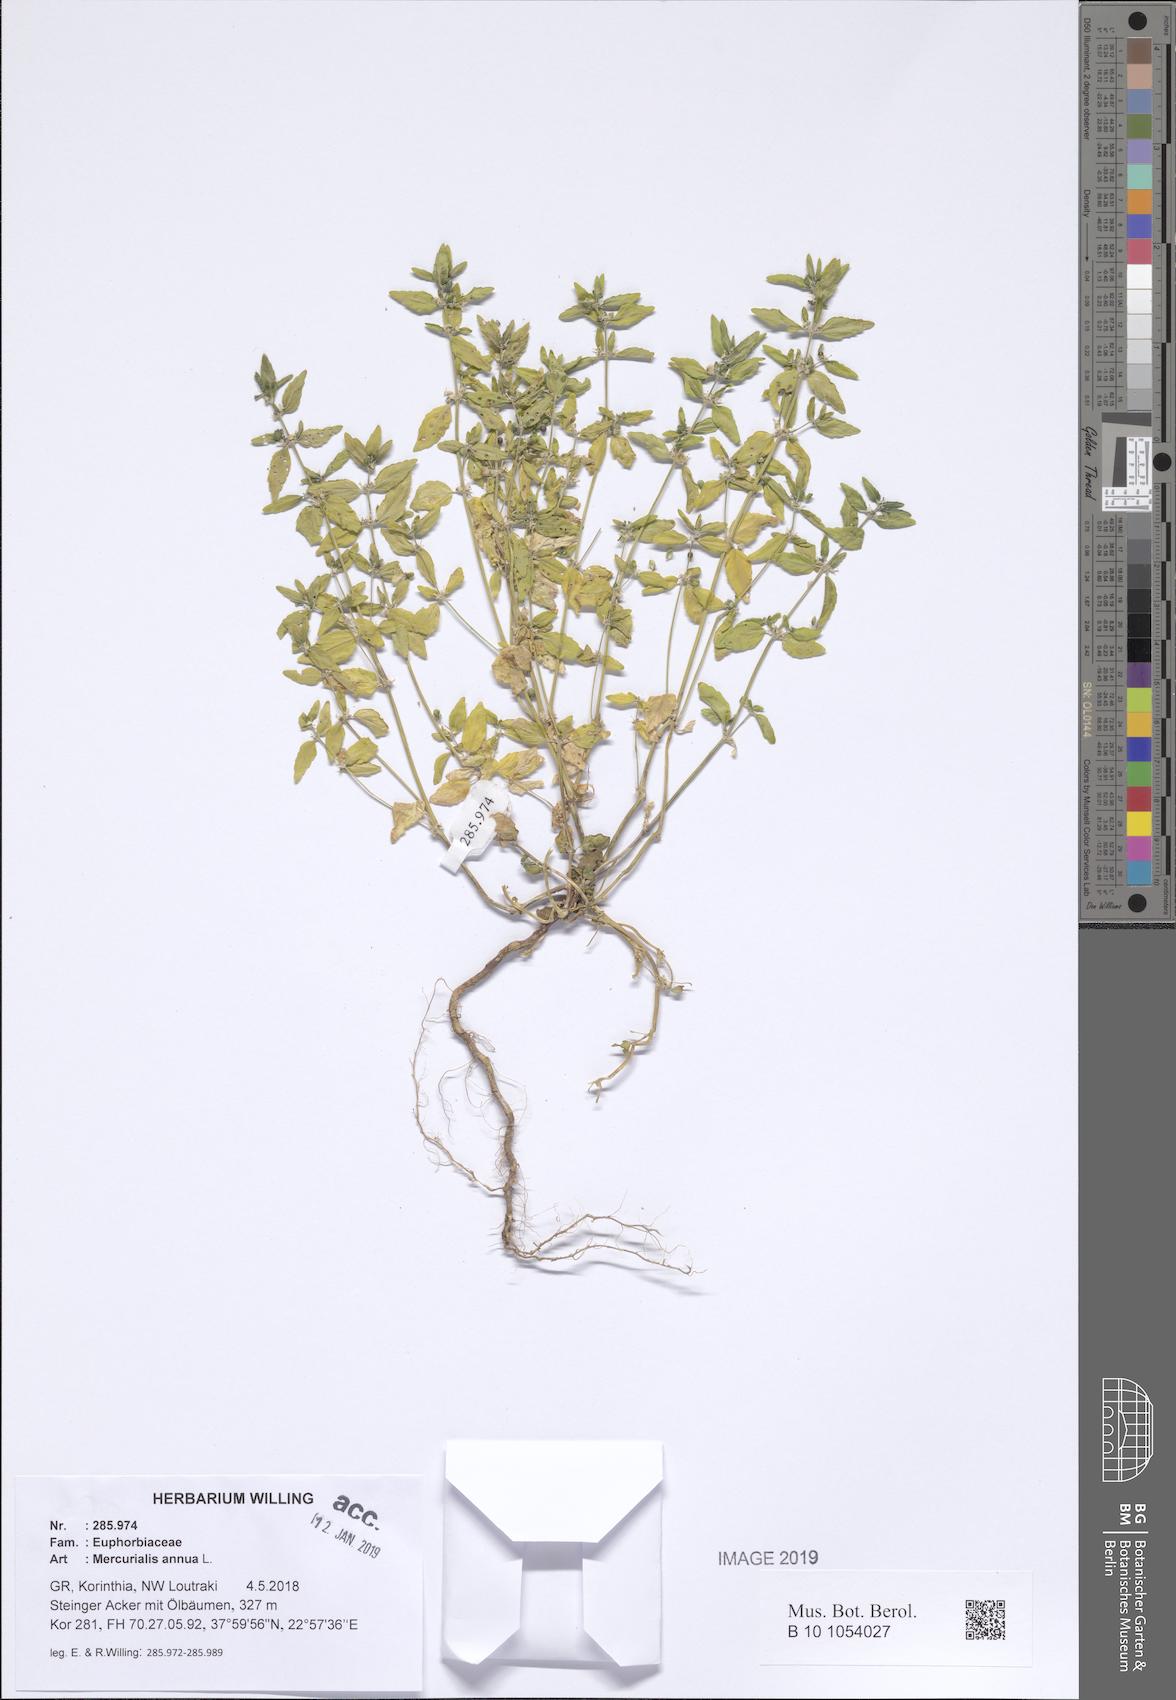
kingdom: Plantae
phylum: Tracheophyta
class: Magnoliopsida
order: Malpighiales
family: Euphorbiaceae
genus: Mercurialis
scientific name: Mercurialis annua
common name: Annual mercury
